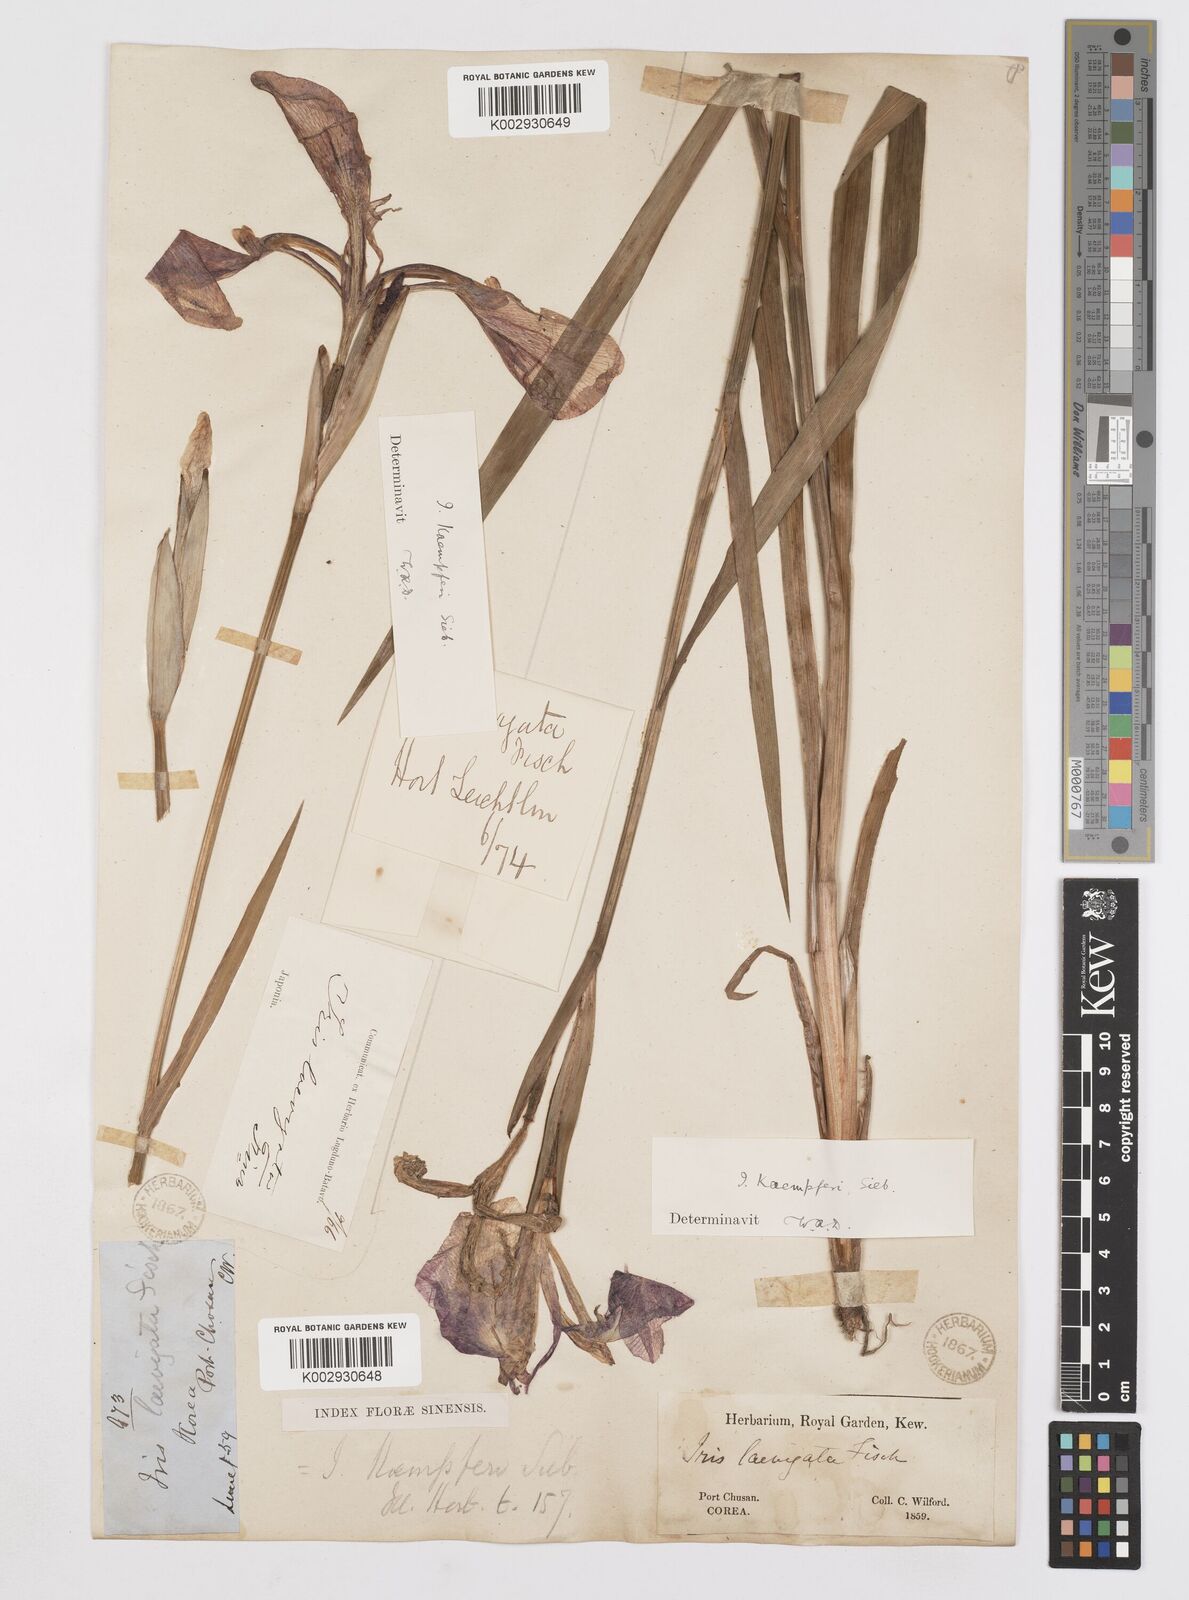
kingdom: Plantae
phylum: Tracheophyta
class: Liliopsida
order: Asparagales
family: Iridaceae
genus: Iris
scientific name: Iris ensata
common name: Beaked iris
